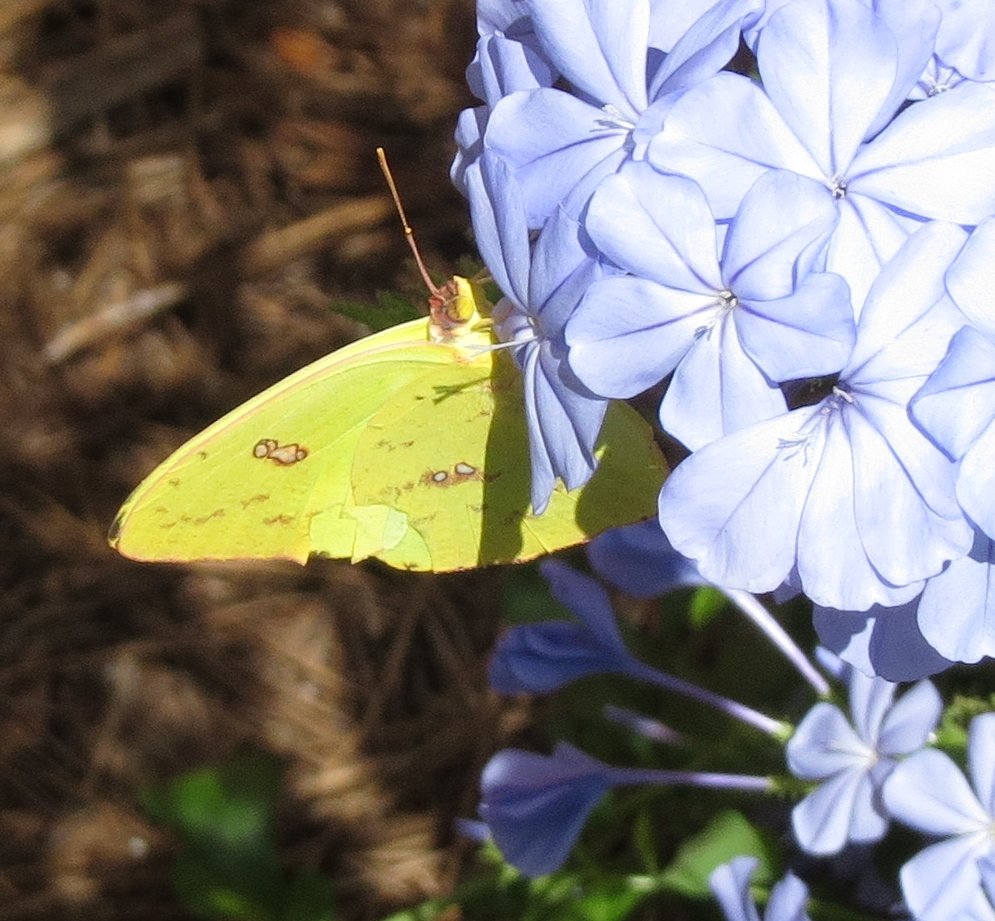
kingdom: Animalia
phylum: Arthropoda
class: Insecta
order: Lepidoptera
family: Pieridae
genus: Phoebis
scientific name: Phoebis sennae
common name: Cloudless Sulphur
